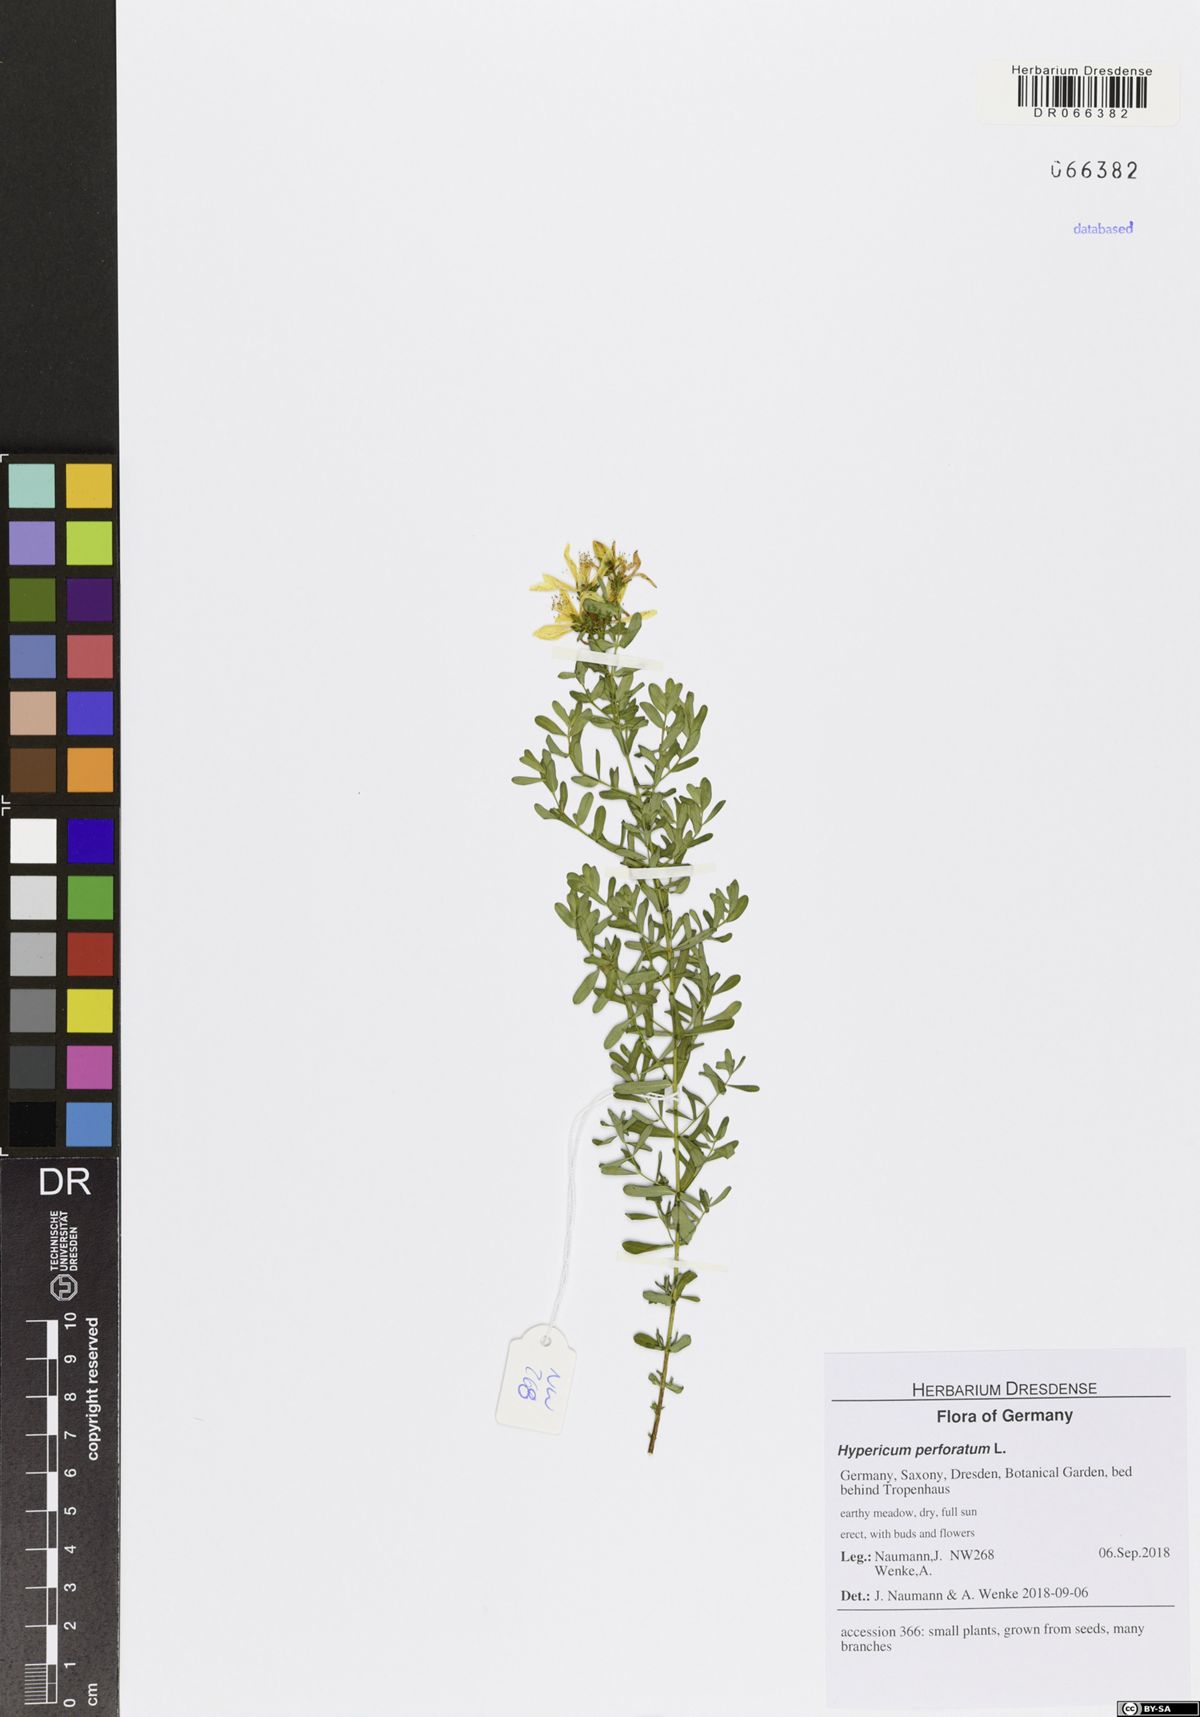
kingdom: Plantae
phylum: Tracheophyta
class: Magnoliopsida
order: Malpighiales
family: Hypericaceae
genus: Hypericum
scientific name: Hypericum perforatum
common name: Common st. johnswort
